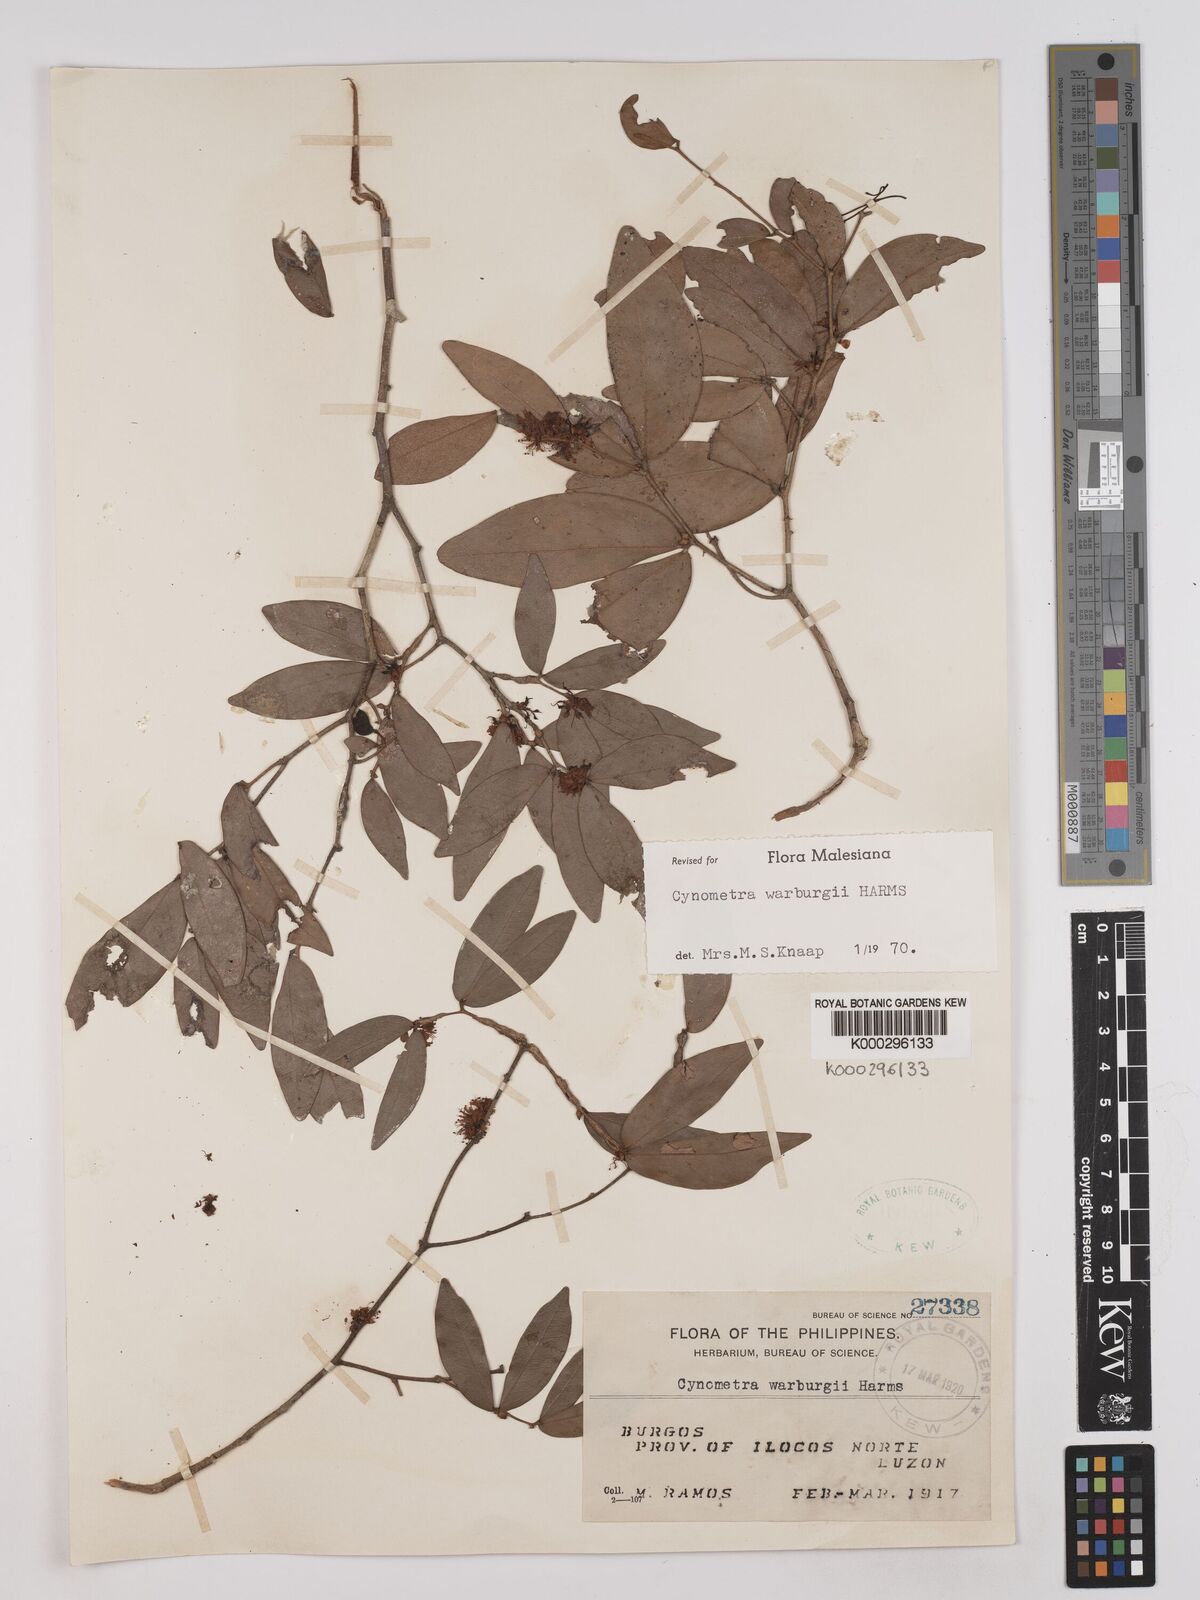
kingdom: Plantae
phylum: Tracheophyta
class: Magnoliopsida
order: Fabales
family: Fabaceae
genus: Cynometra
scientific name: Cynometra warburgii
